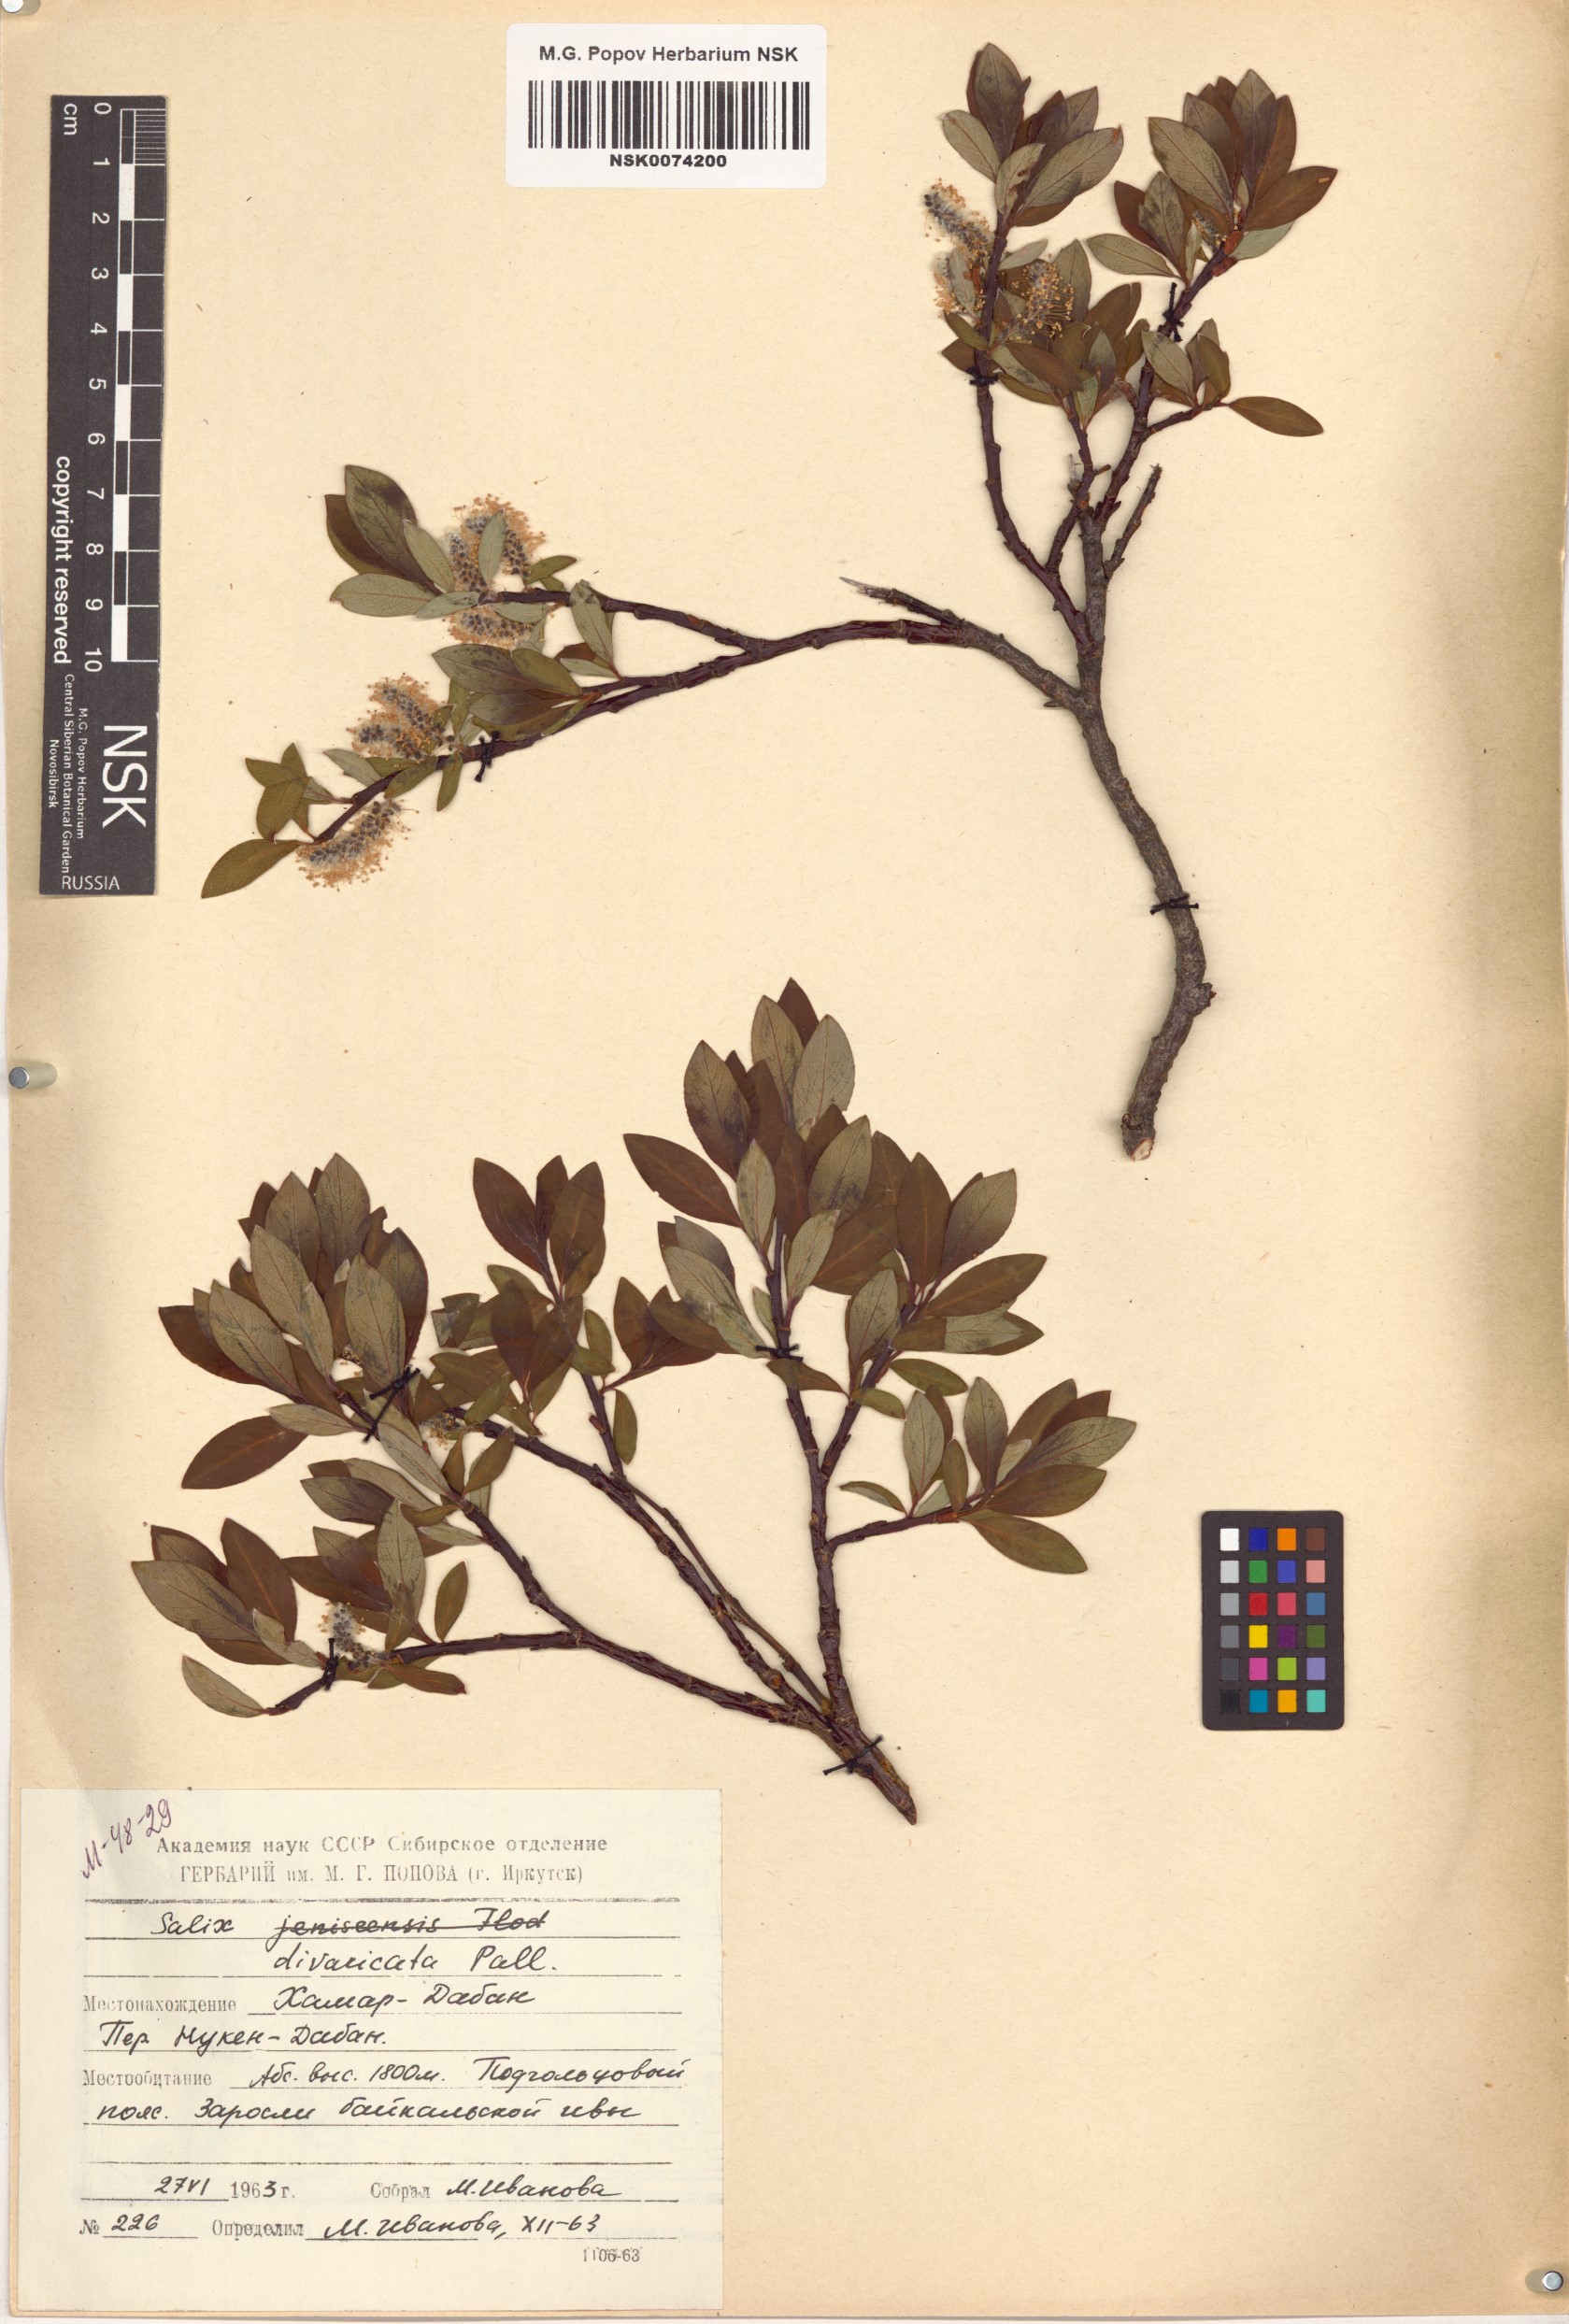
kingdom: Plantae
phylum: Tracheophyta
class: Magnoliopsida
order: Malpighiales
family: Salicaceae
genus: Salix
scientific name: Salix divaricata
